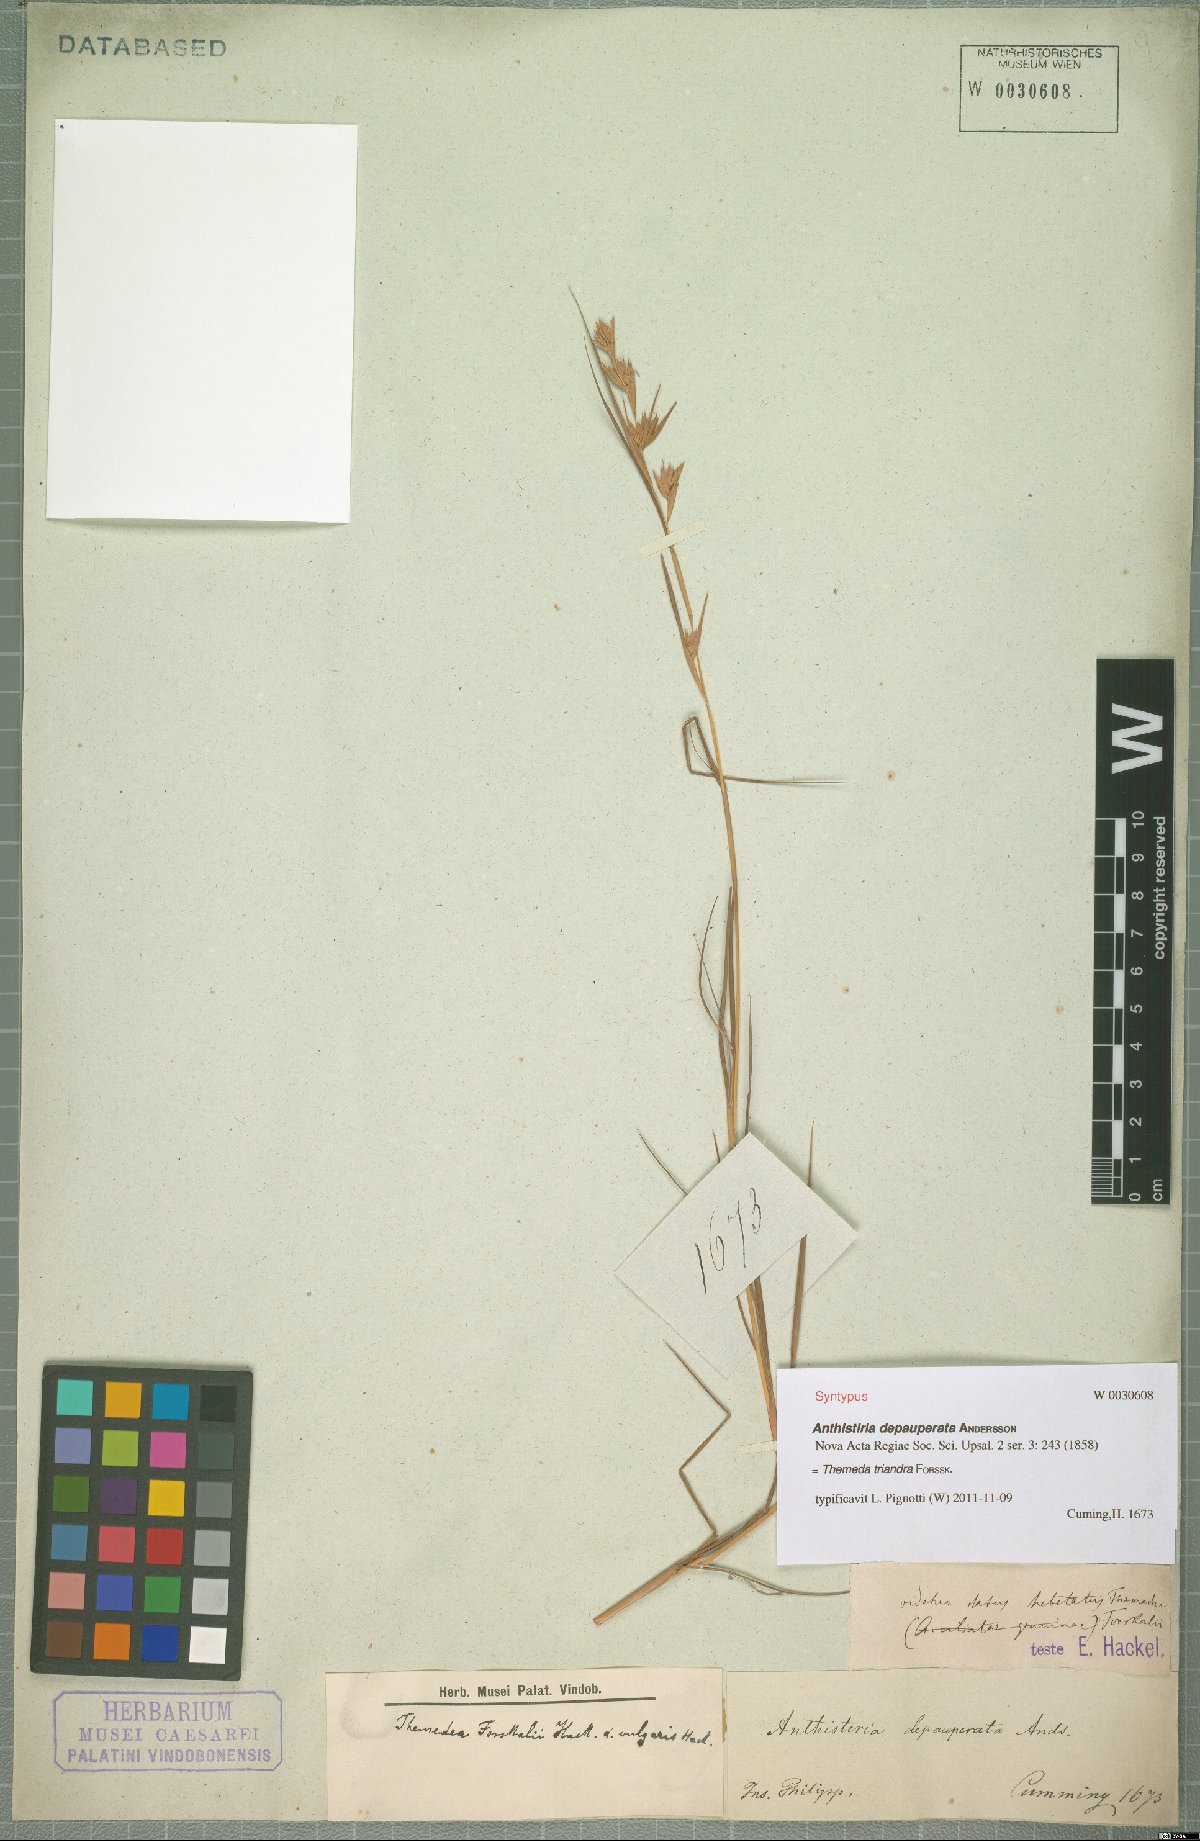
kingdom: Plantae
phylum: Tracheophyta
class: Liliopsida
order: Poales
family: Poaceae
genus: Themeda
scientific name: Themeda triandra
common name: Kangaroo grass
